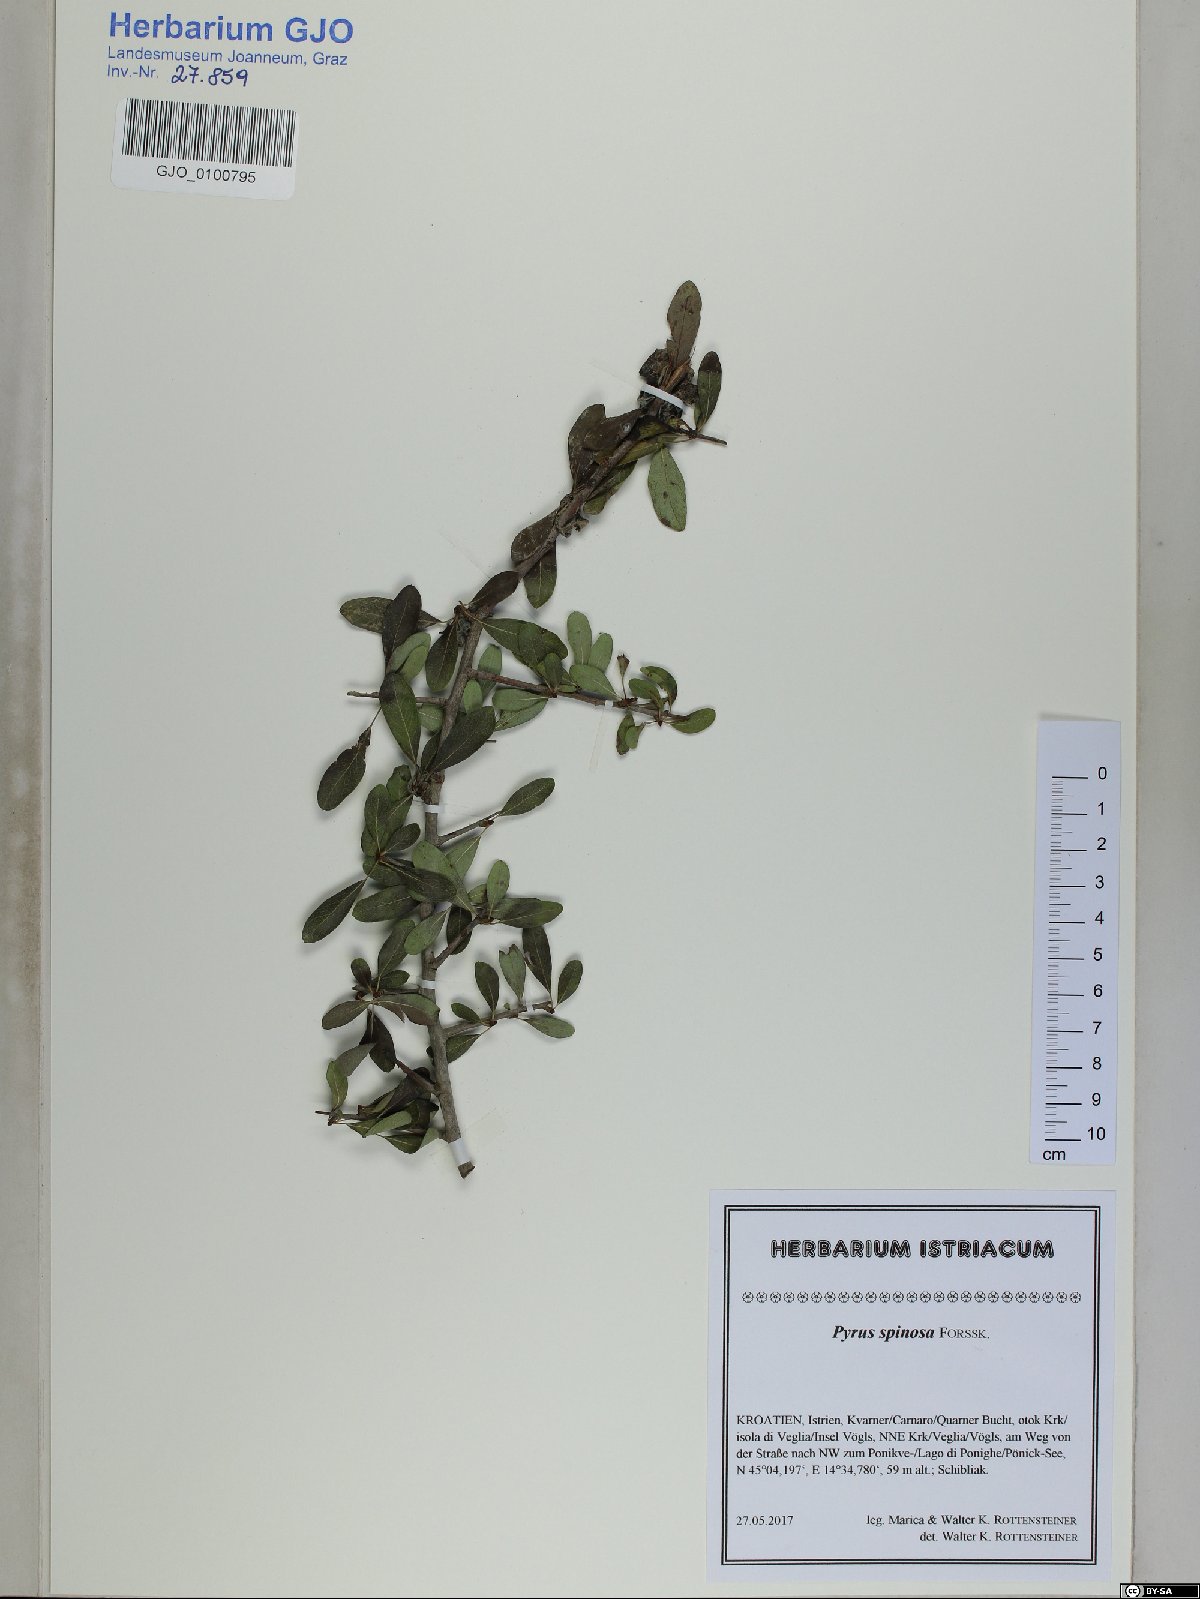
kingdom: Plantae
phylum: Tracheophyta
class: Magnoliopsida
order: Rosales
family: Rosaceae
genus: Pyrus
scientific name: Pyrus spinosa
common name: Almond-leaf pear
